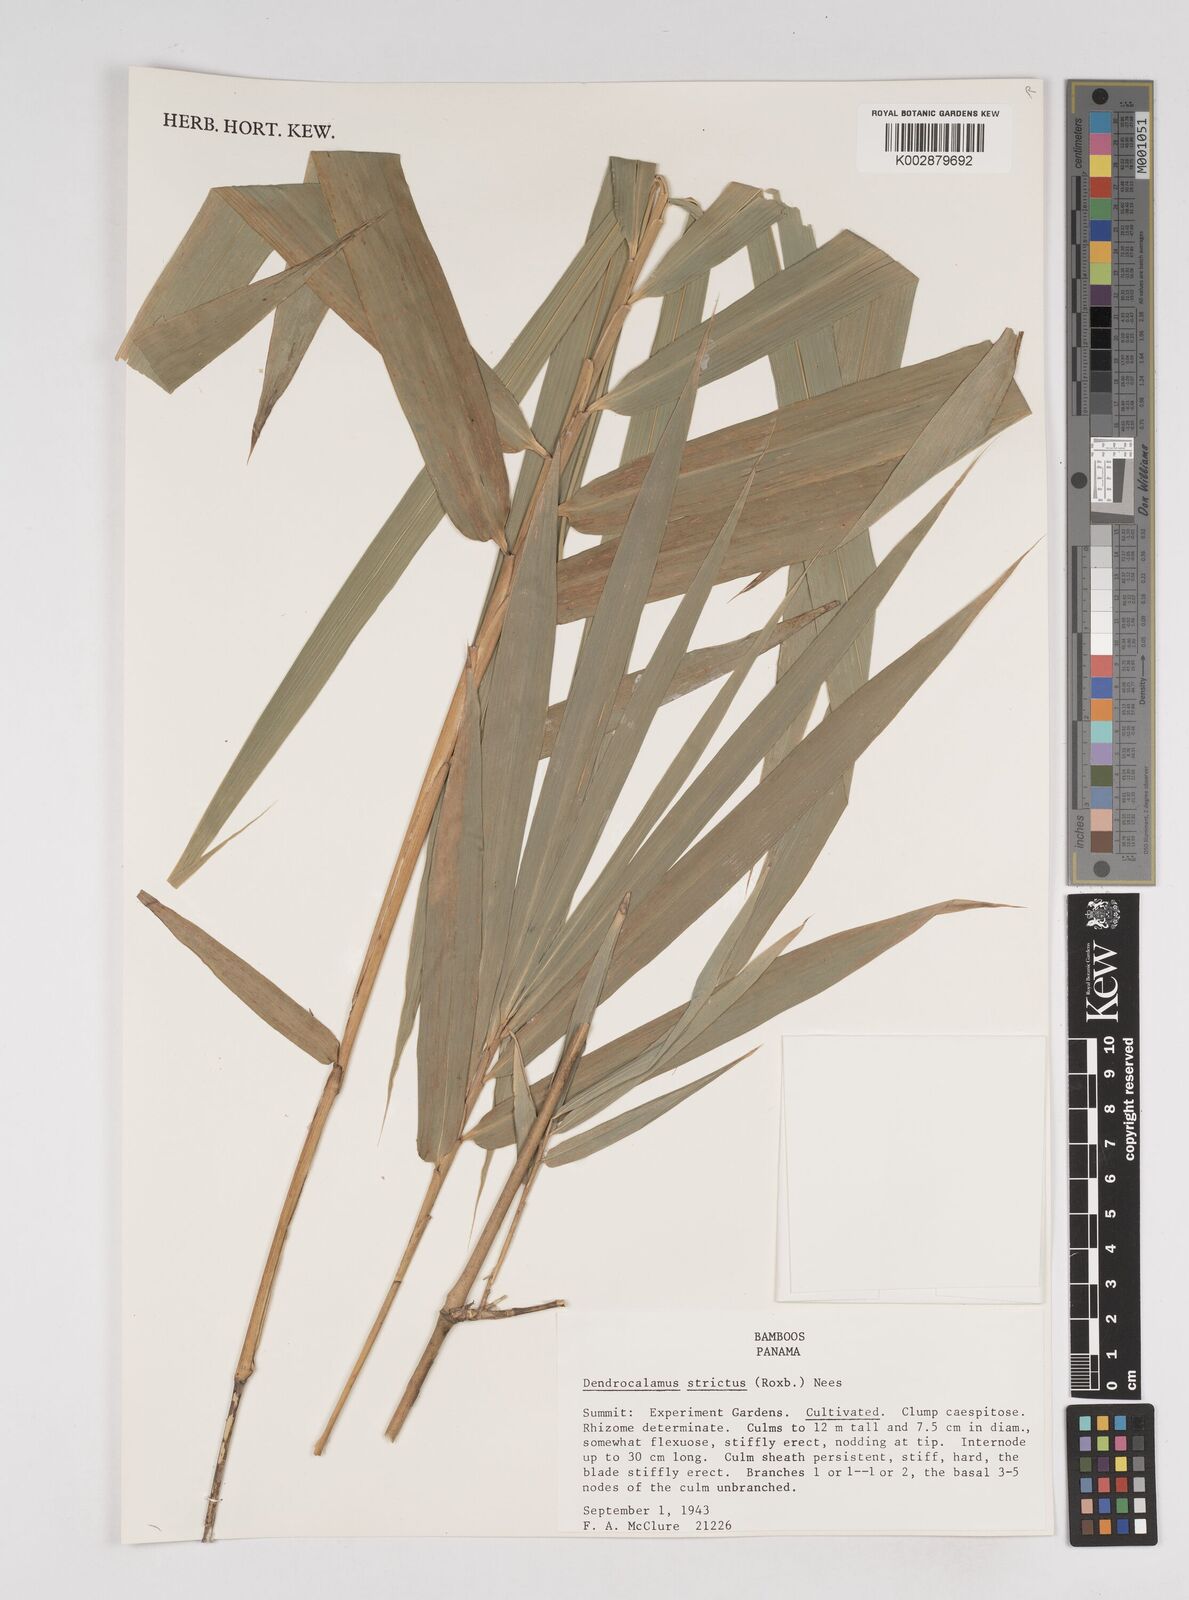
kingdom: Plantae
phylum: Tracheophyta
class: Liliopsida
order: Poales
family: Poaceae
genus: Dendrocalamus
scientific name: Dendrocalamus strictus
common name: Male bamboo
